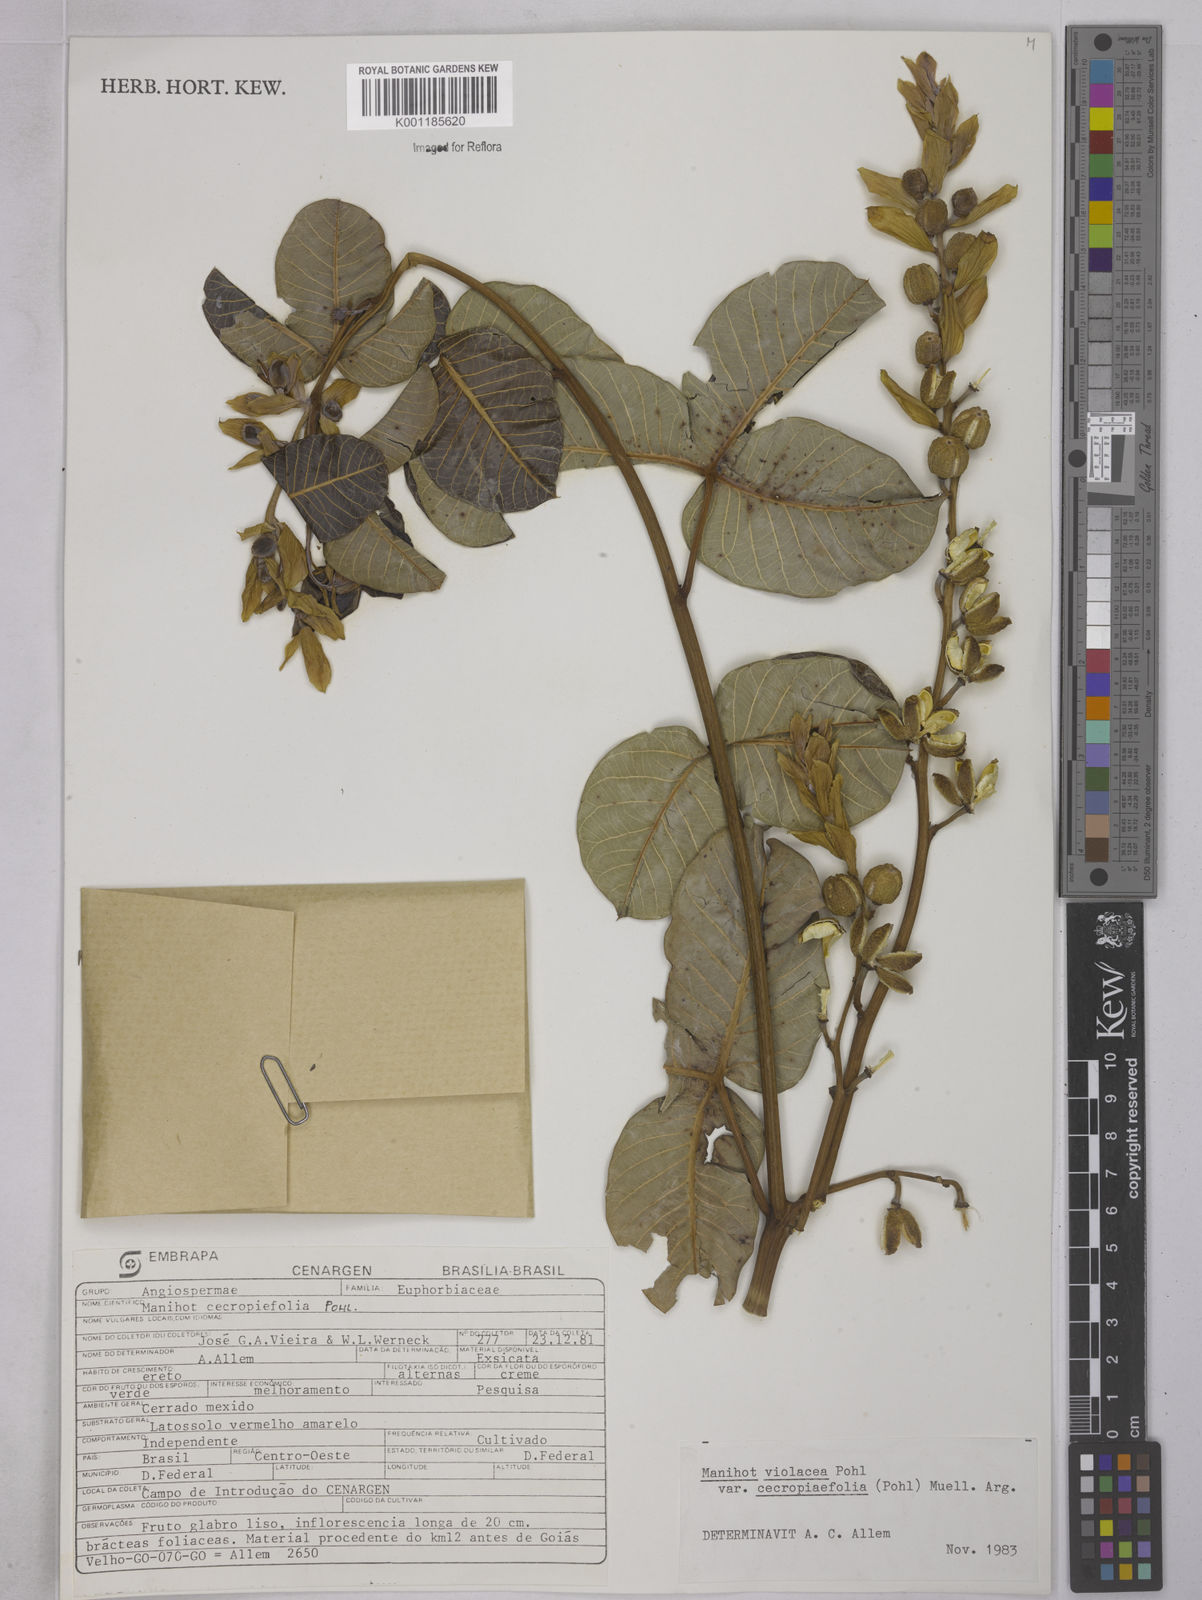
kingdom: Plantae
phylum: Tracheophyta
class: Magnoliopsida
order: Malpighiales
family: Euphorbiaceae
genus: Manihot
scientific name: Manihot cecropiifolia
